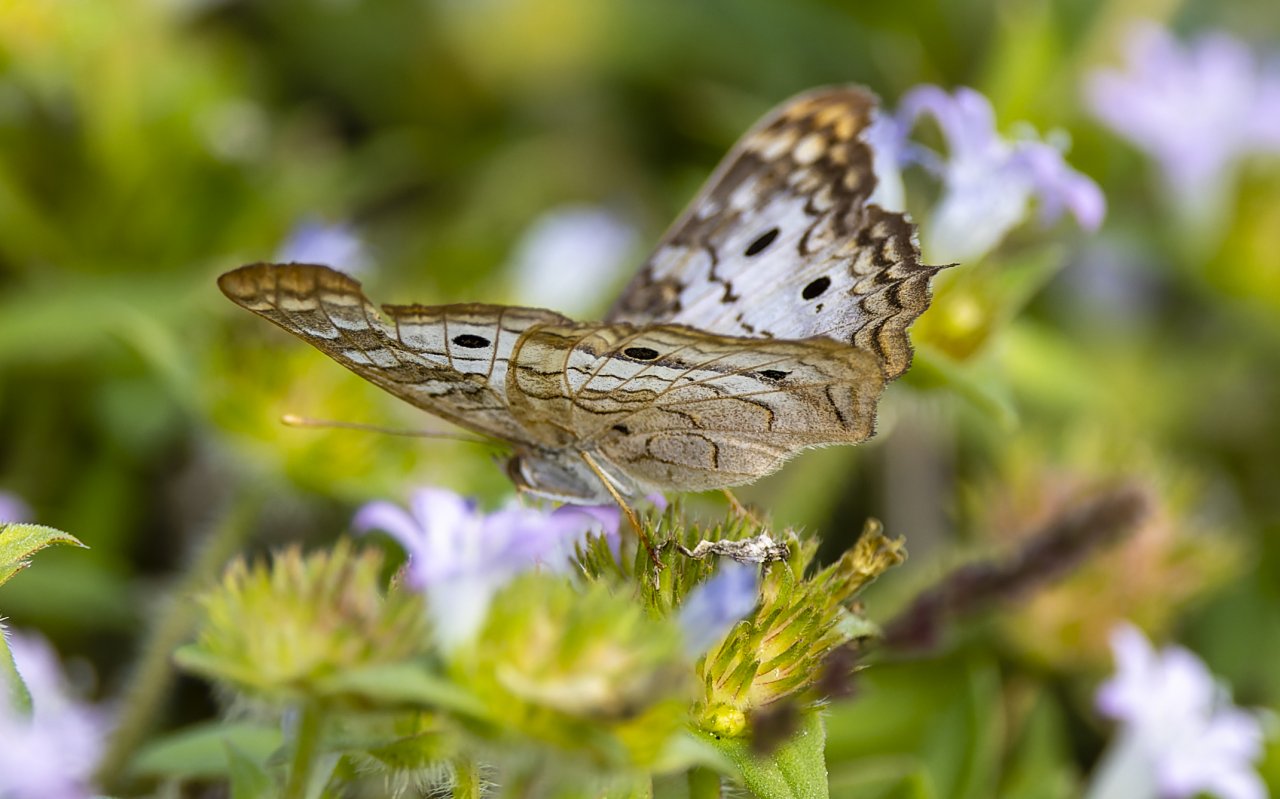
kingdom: Animalia
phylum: Arthropoda
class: Insecta
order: Lepidoptera
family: Nymphalidae
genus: Anartia
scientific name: Anartia jatrophae
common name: White Peacock
